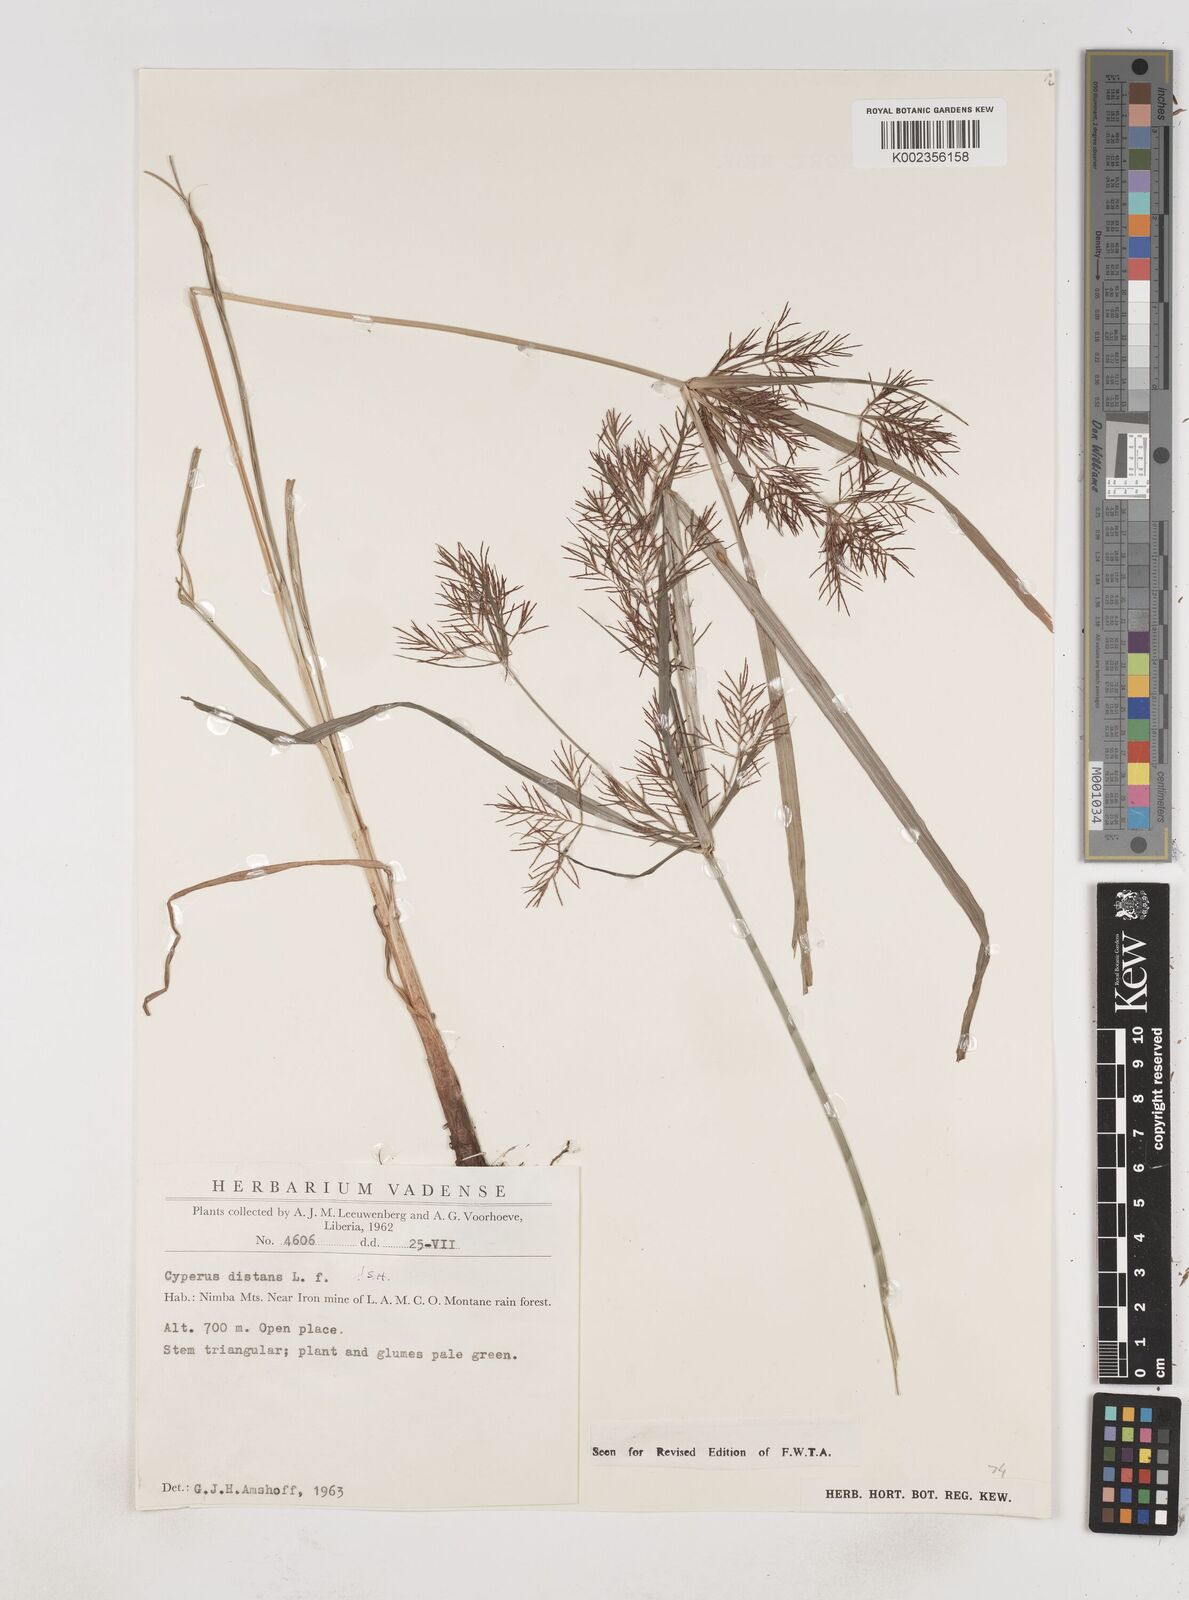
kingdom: Plantae
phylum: Tracheophyta
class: Liliopsida
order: Poales
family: Cyperaceae
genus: Cyperus
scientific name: Cyperus distans
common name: Slender cyperus
